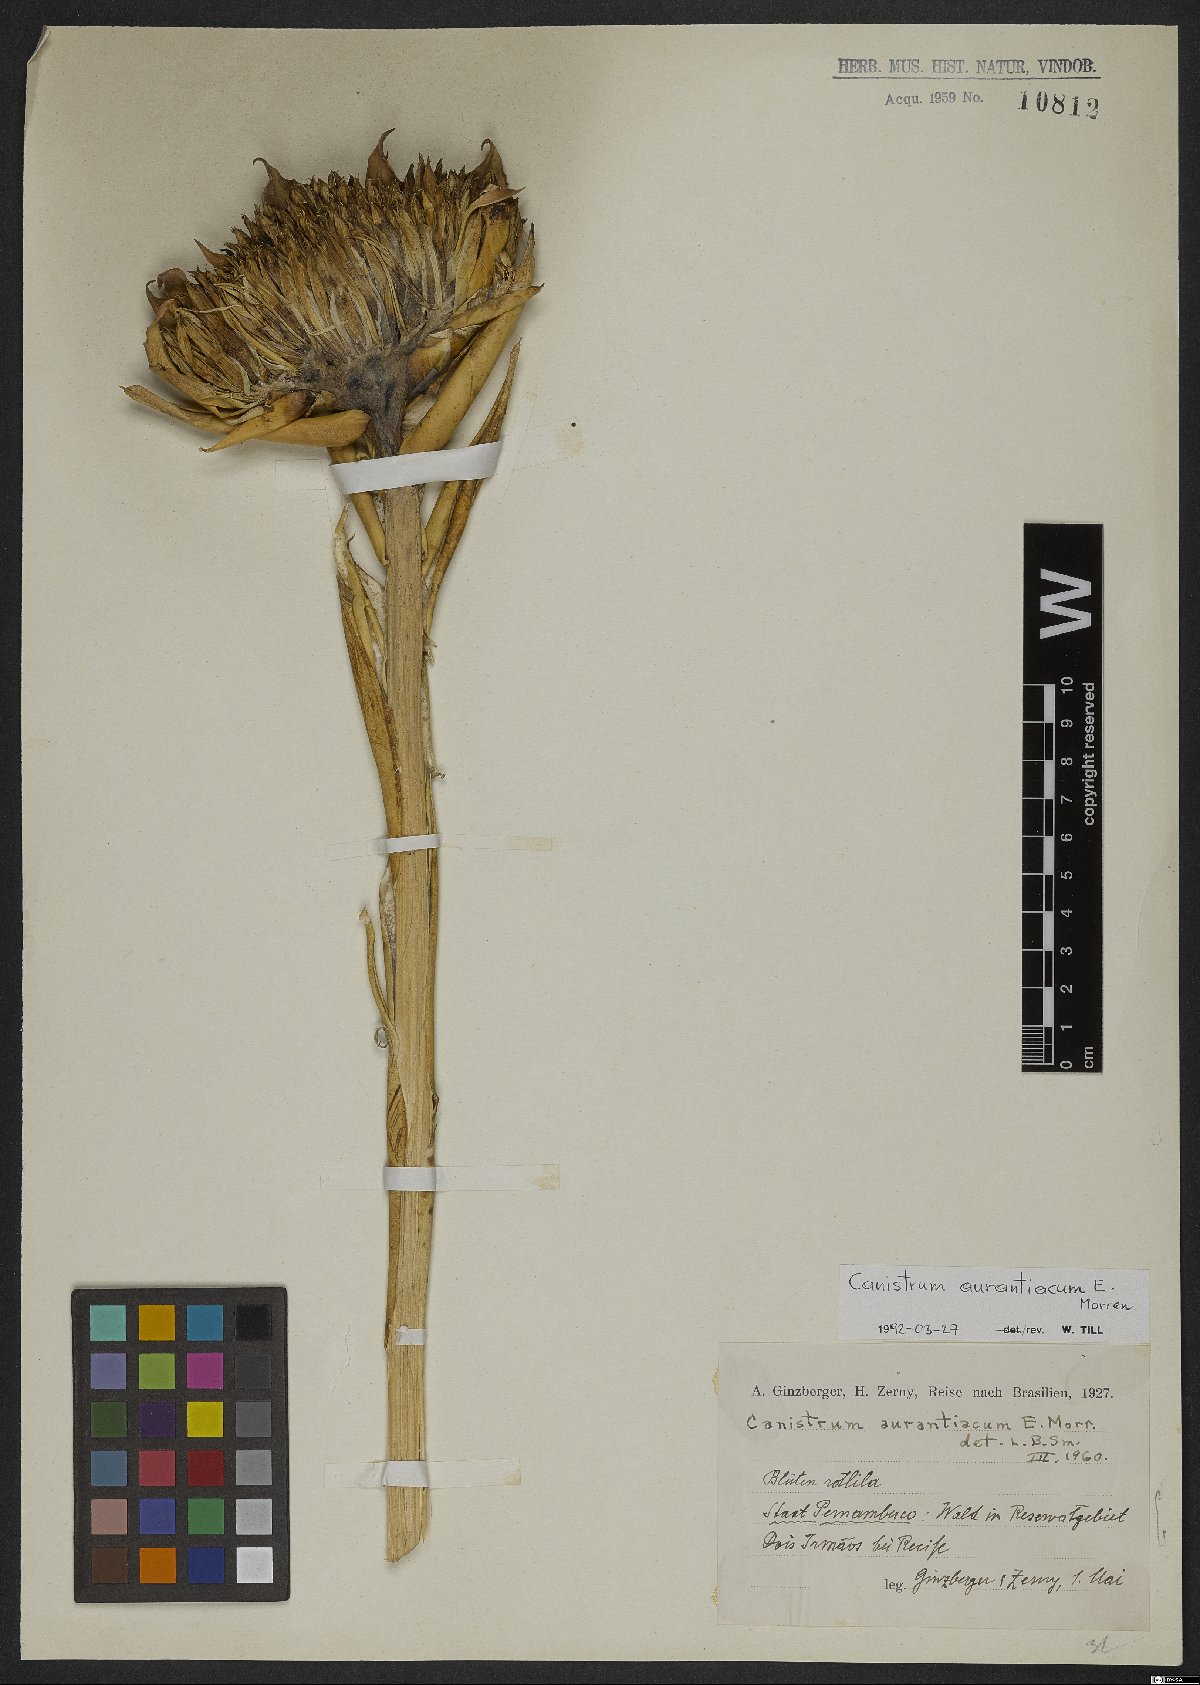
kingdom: Plantae
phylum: Tracheophyta
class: Liliopsida
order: Poales
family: Bromeliaceae
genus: Canistrum
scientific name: Canistrum aurantiacum
